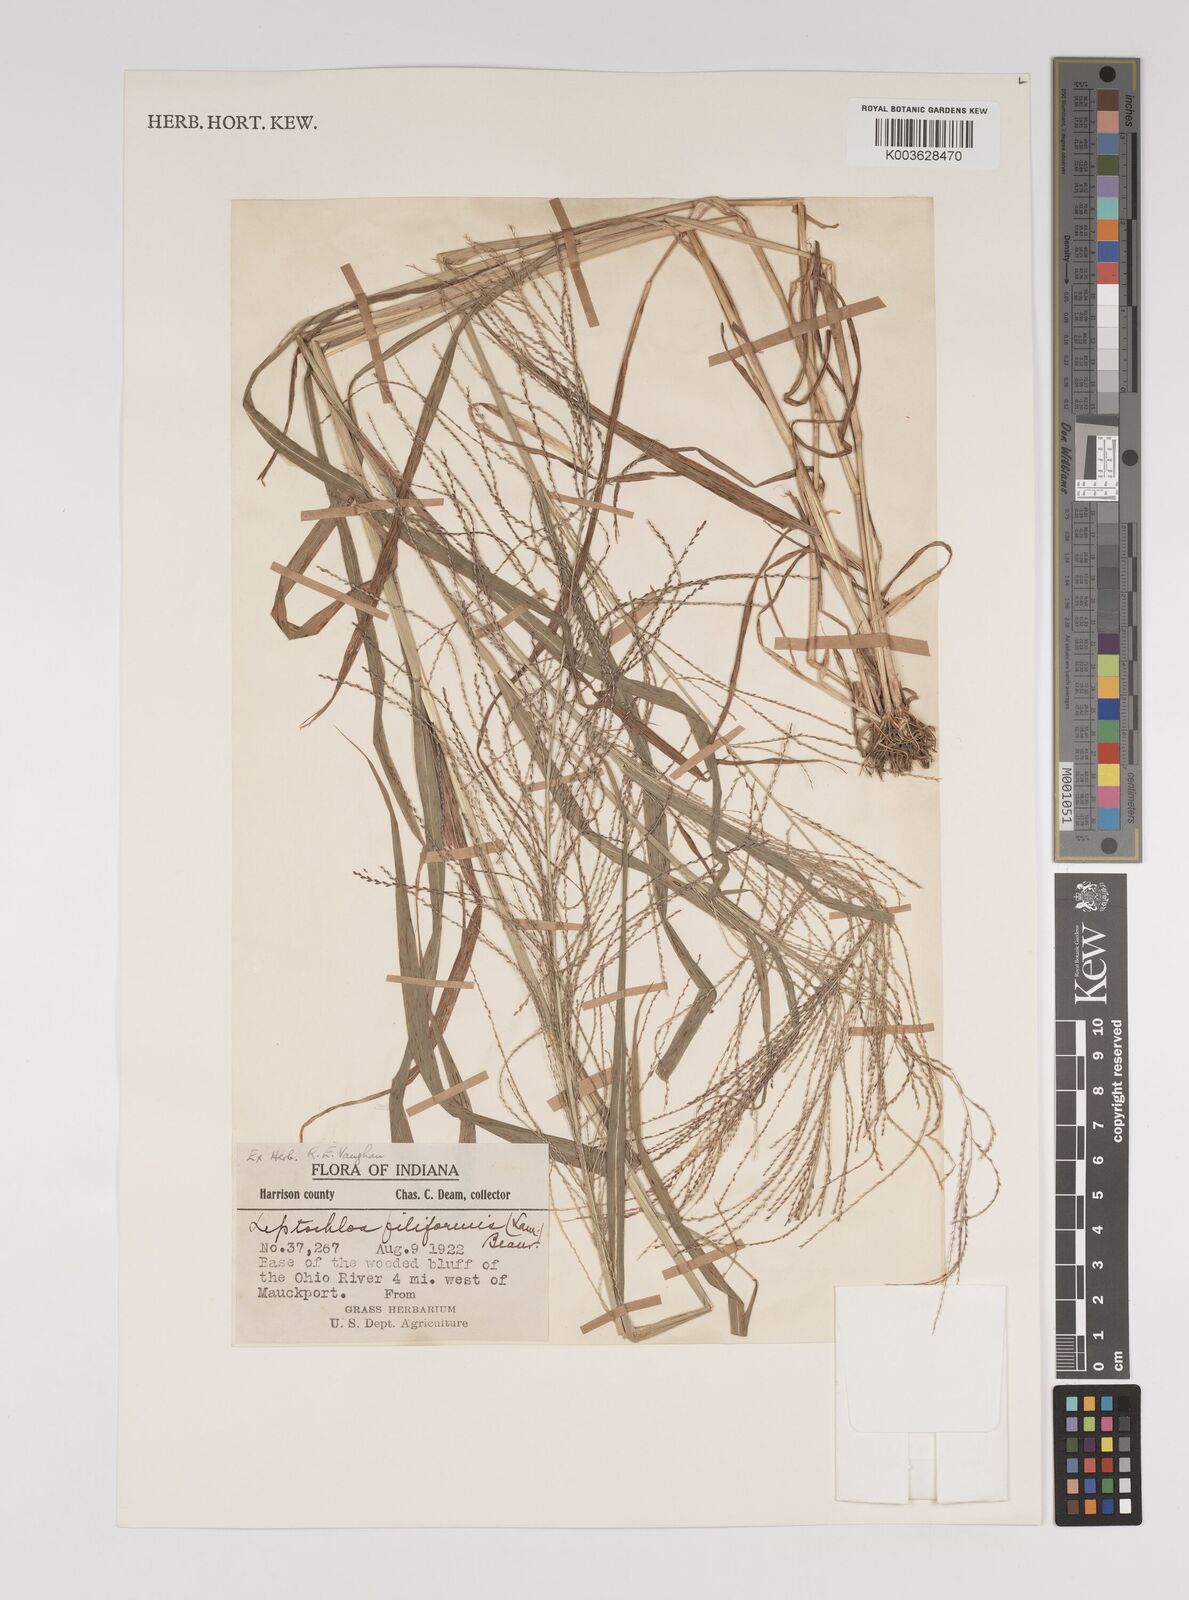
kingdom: Plantae
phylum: Tracheophyta
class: Liliopsida
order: Poales
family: Poaceae
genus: Leptochloa
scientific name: Leptochloa panicea
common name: Mucronate sprangletop
